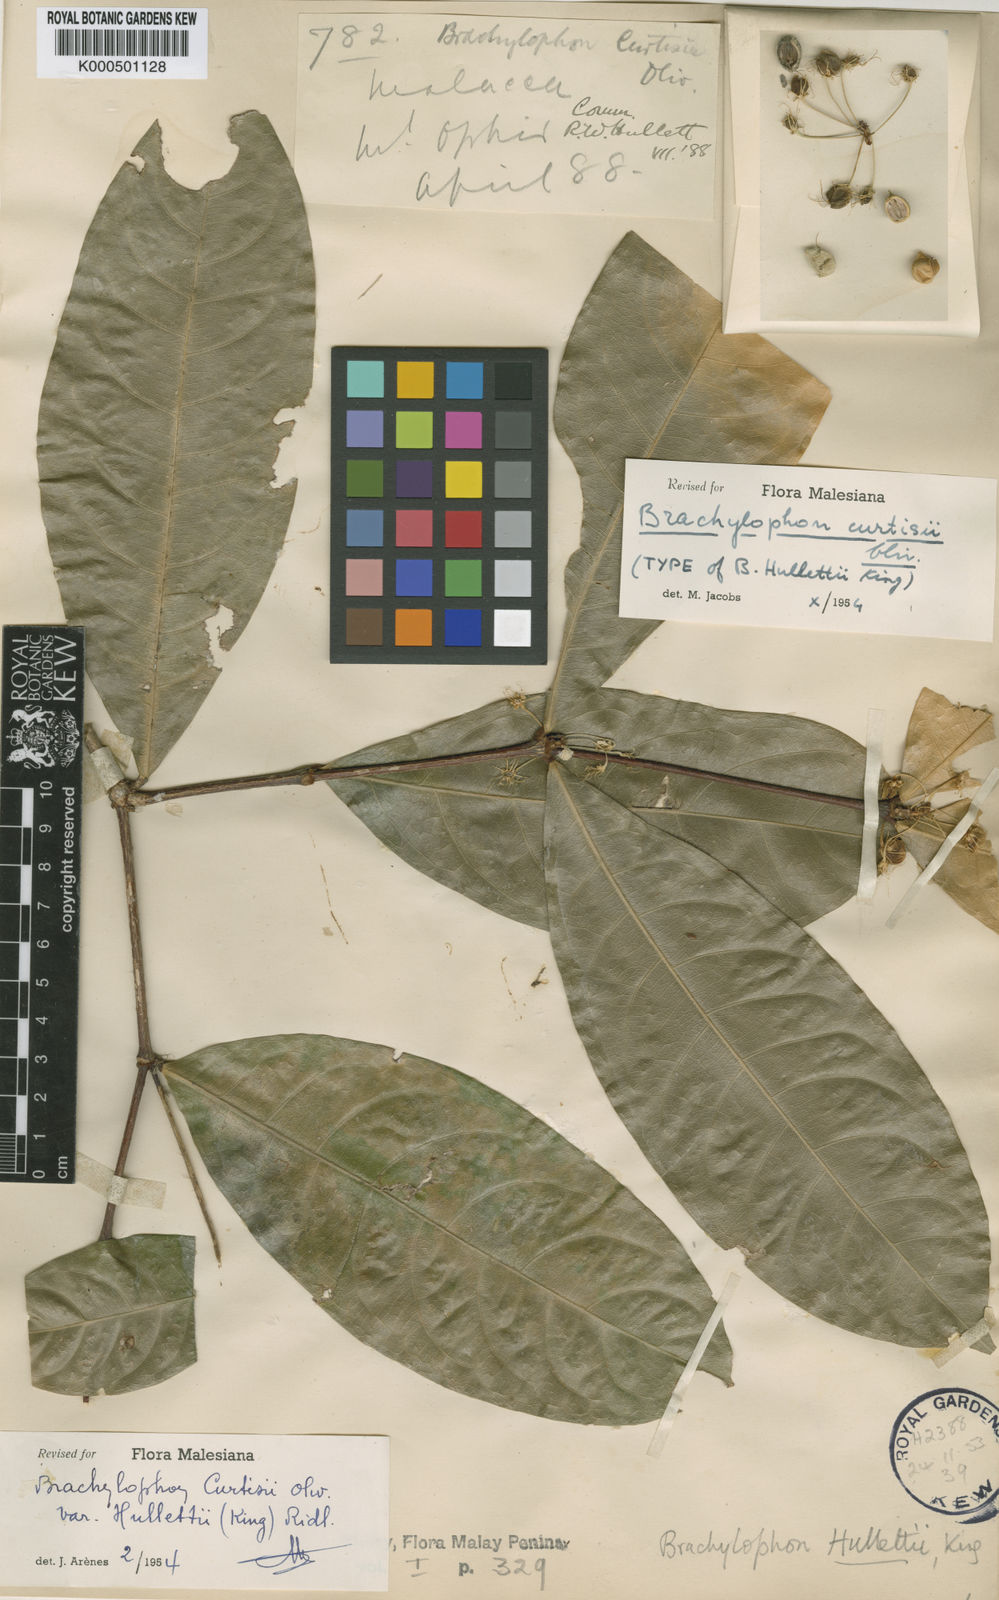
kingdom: Plantae
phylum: Tracheophyta
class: Magnoliopsida
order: Malpighiales
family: Malpighiaceae
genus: Brachylophon
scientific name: Brachylophon curtisii
